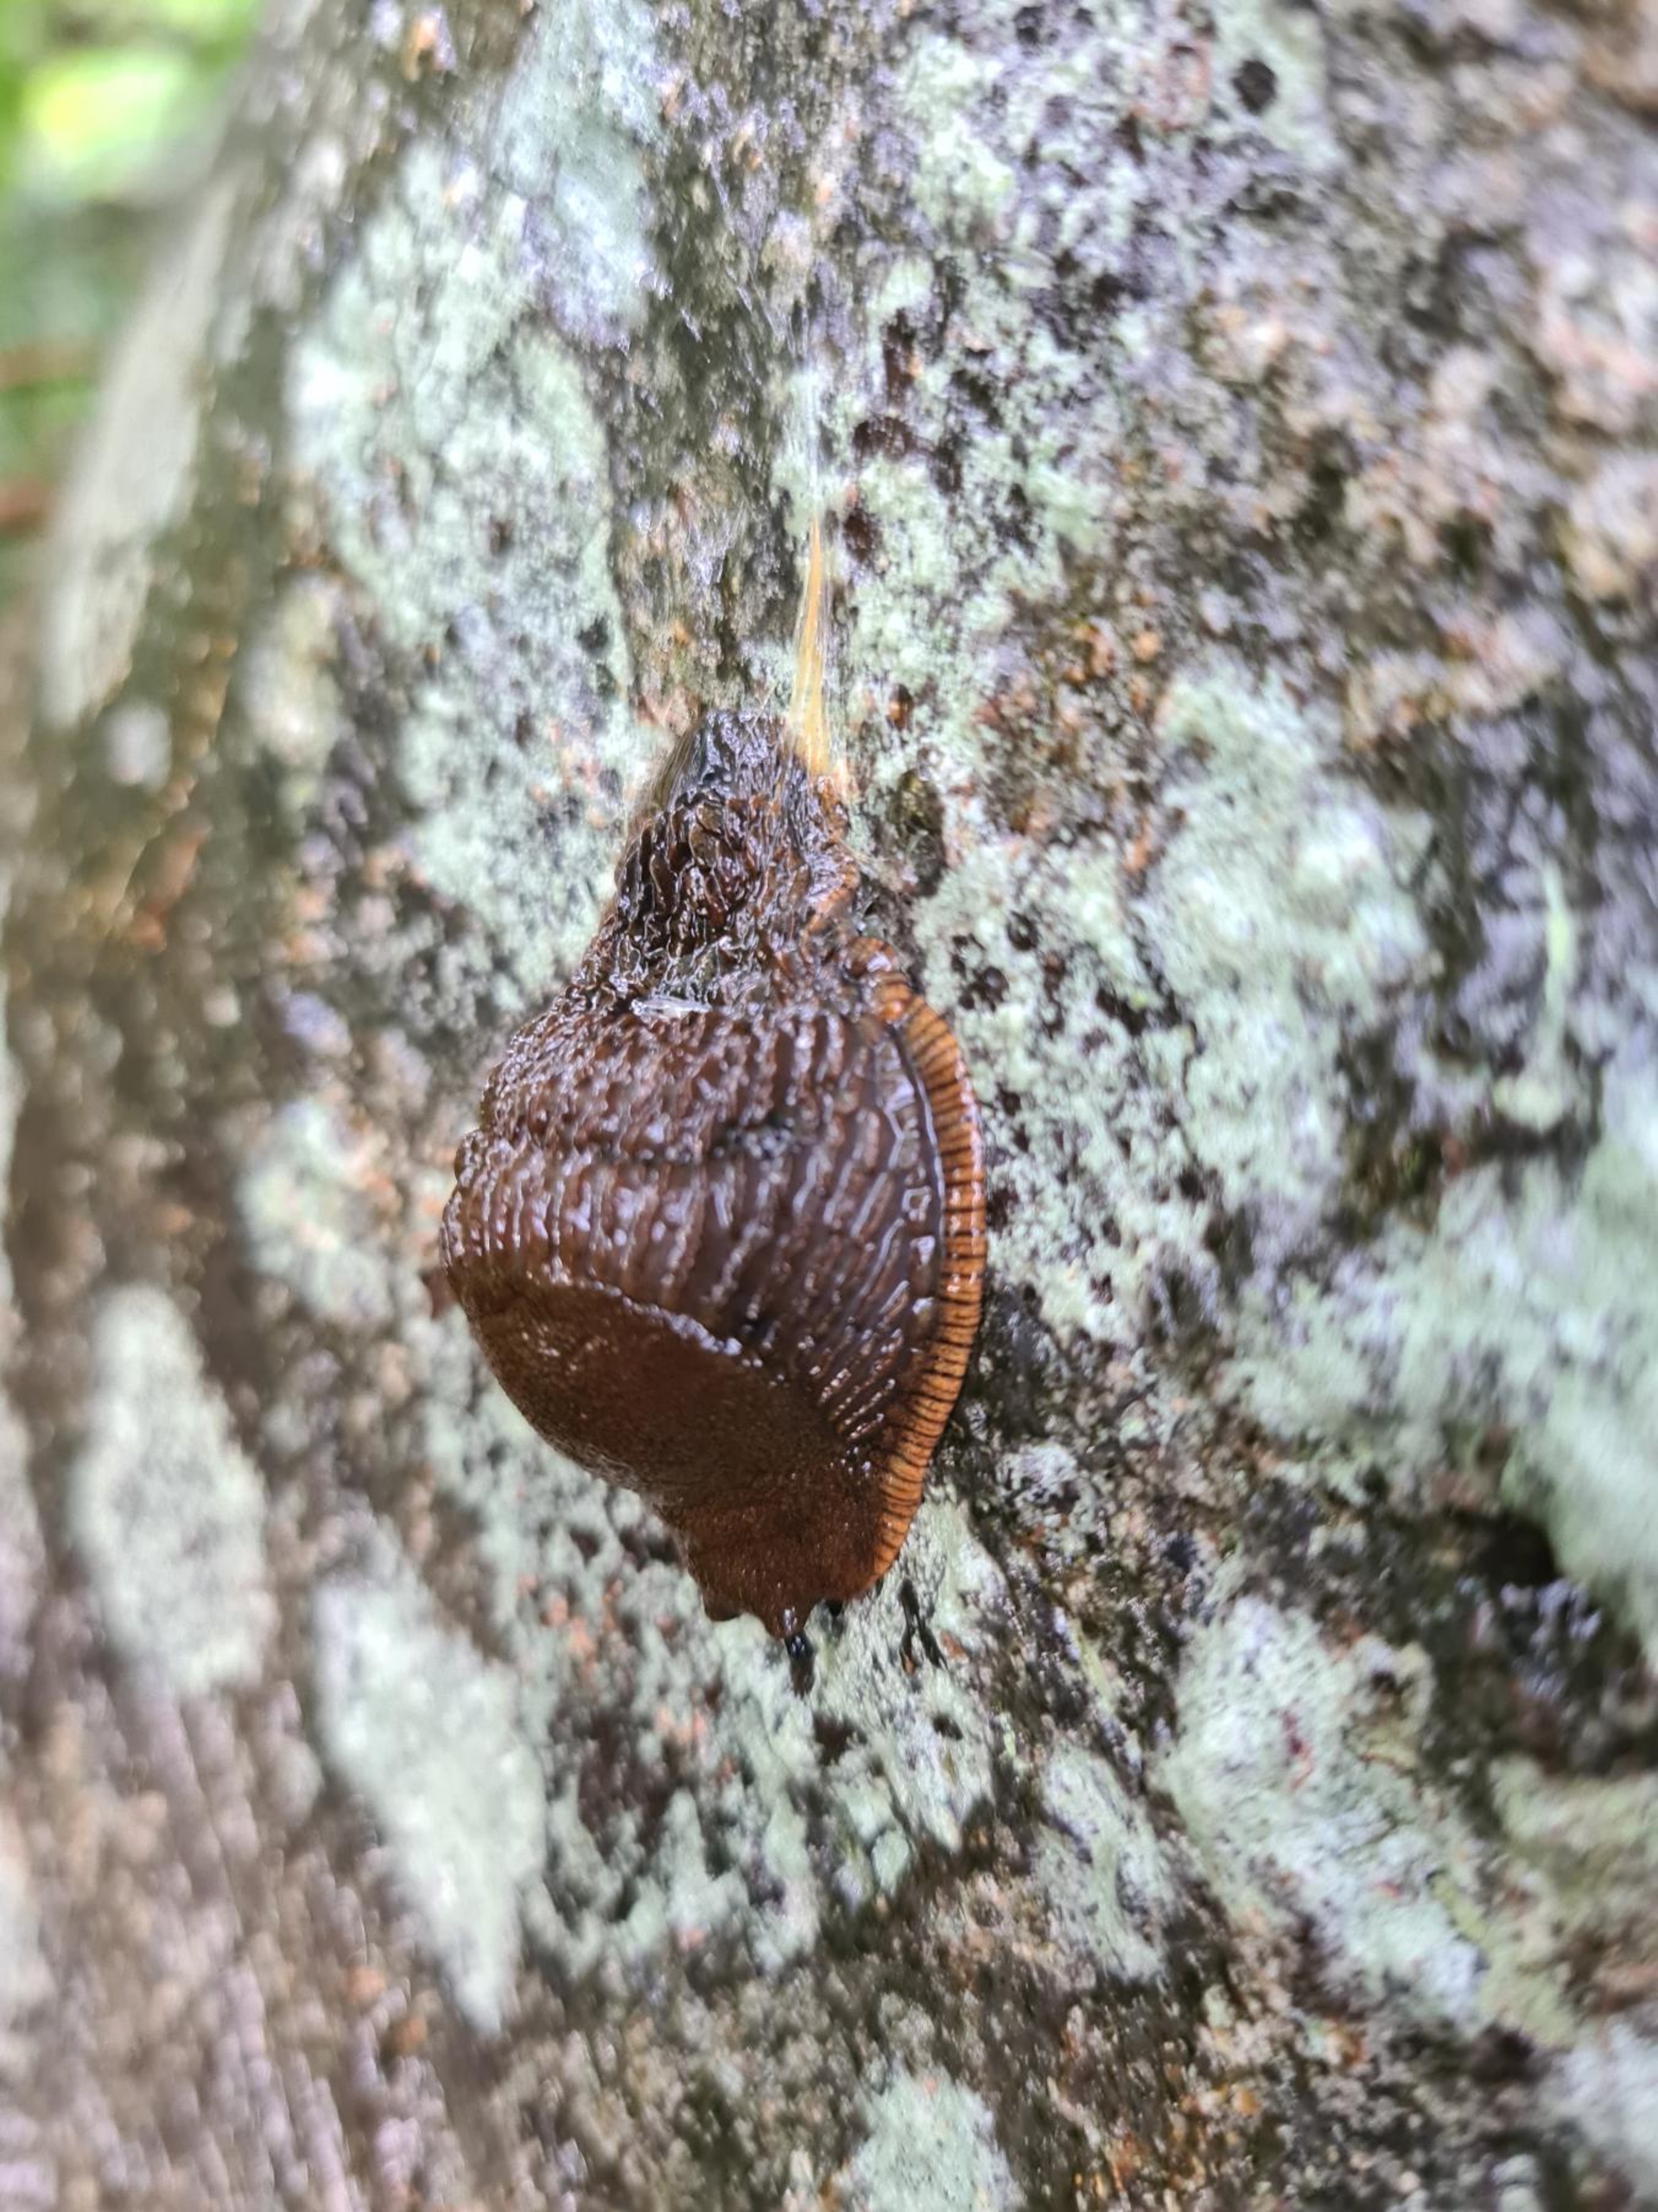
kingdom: Animalia
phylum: Mollusca
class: Gastropoda
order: Stylommatophora
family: Arionidae
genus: Arion
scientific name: Arion vulgaris
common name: Iberisk skovsnegl
